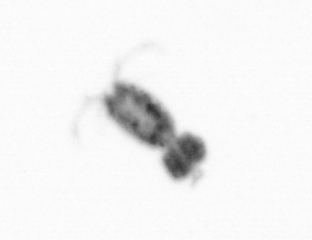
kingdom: Animalia
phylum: Arthropoda
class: Copepoda
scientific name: Copepoda
